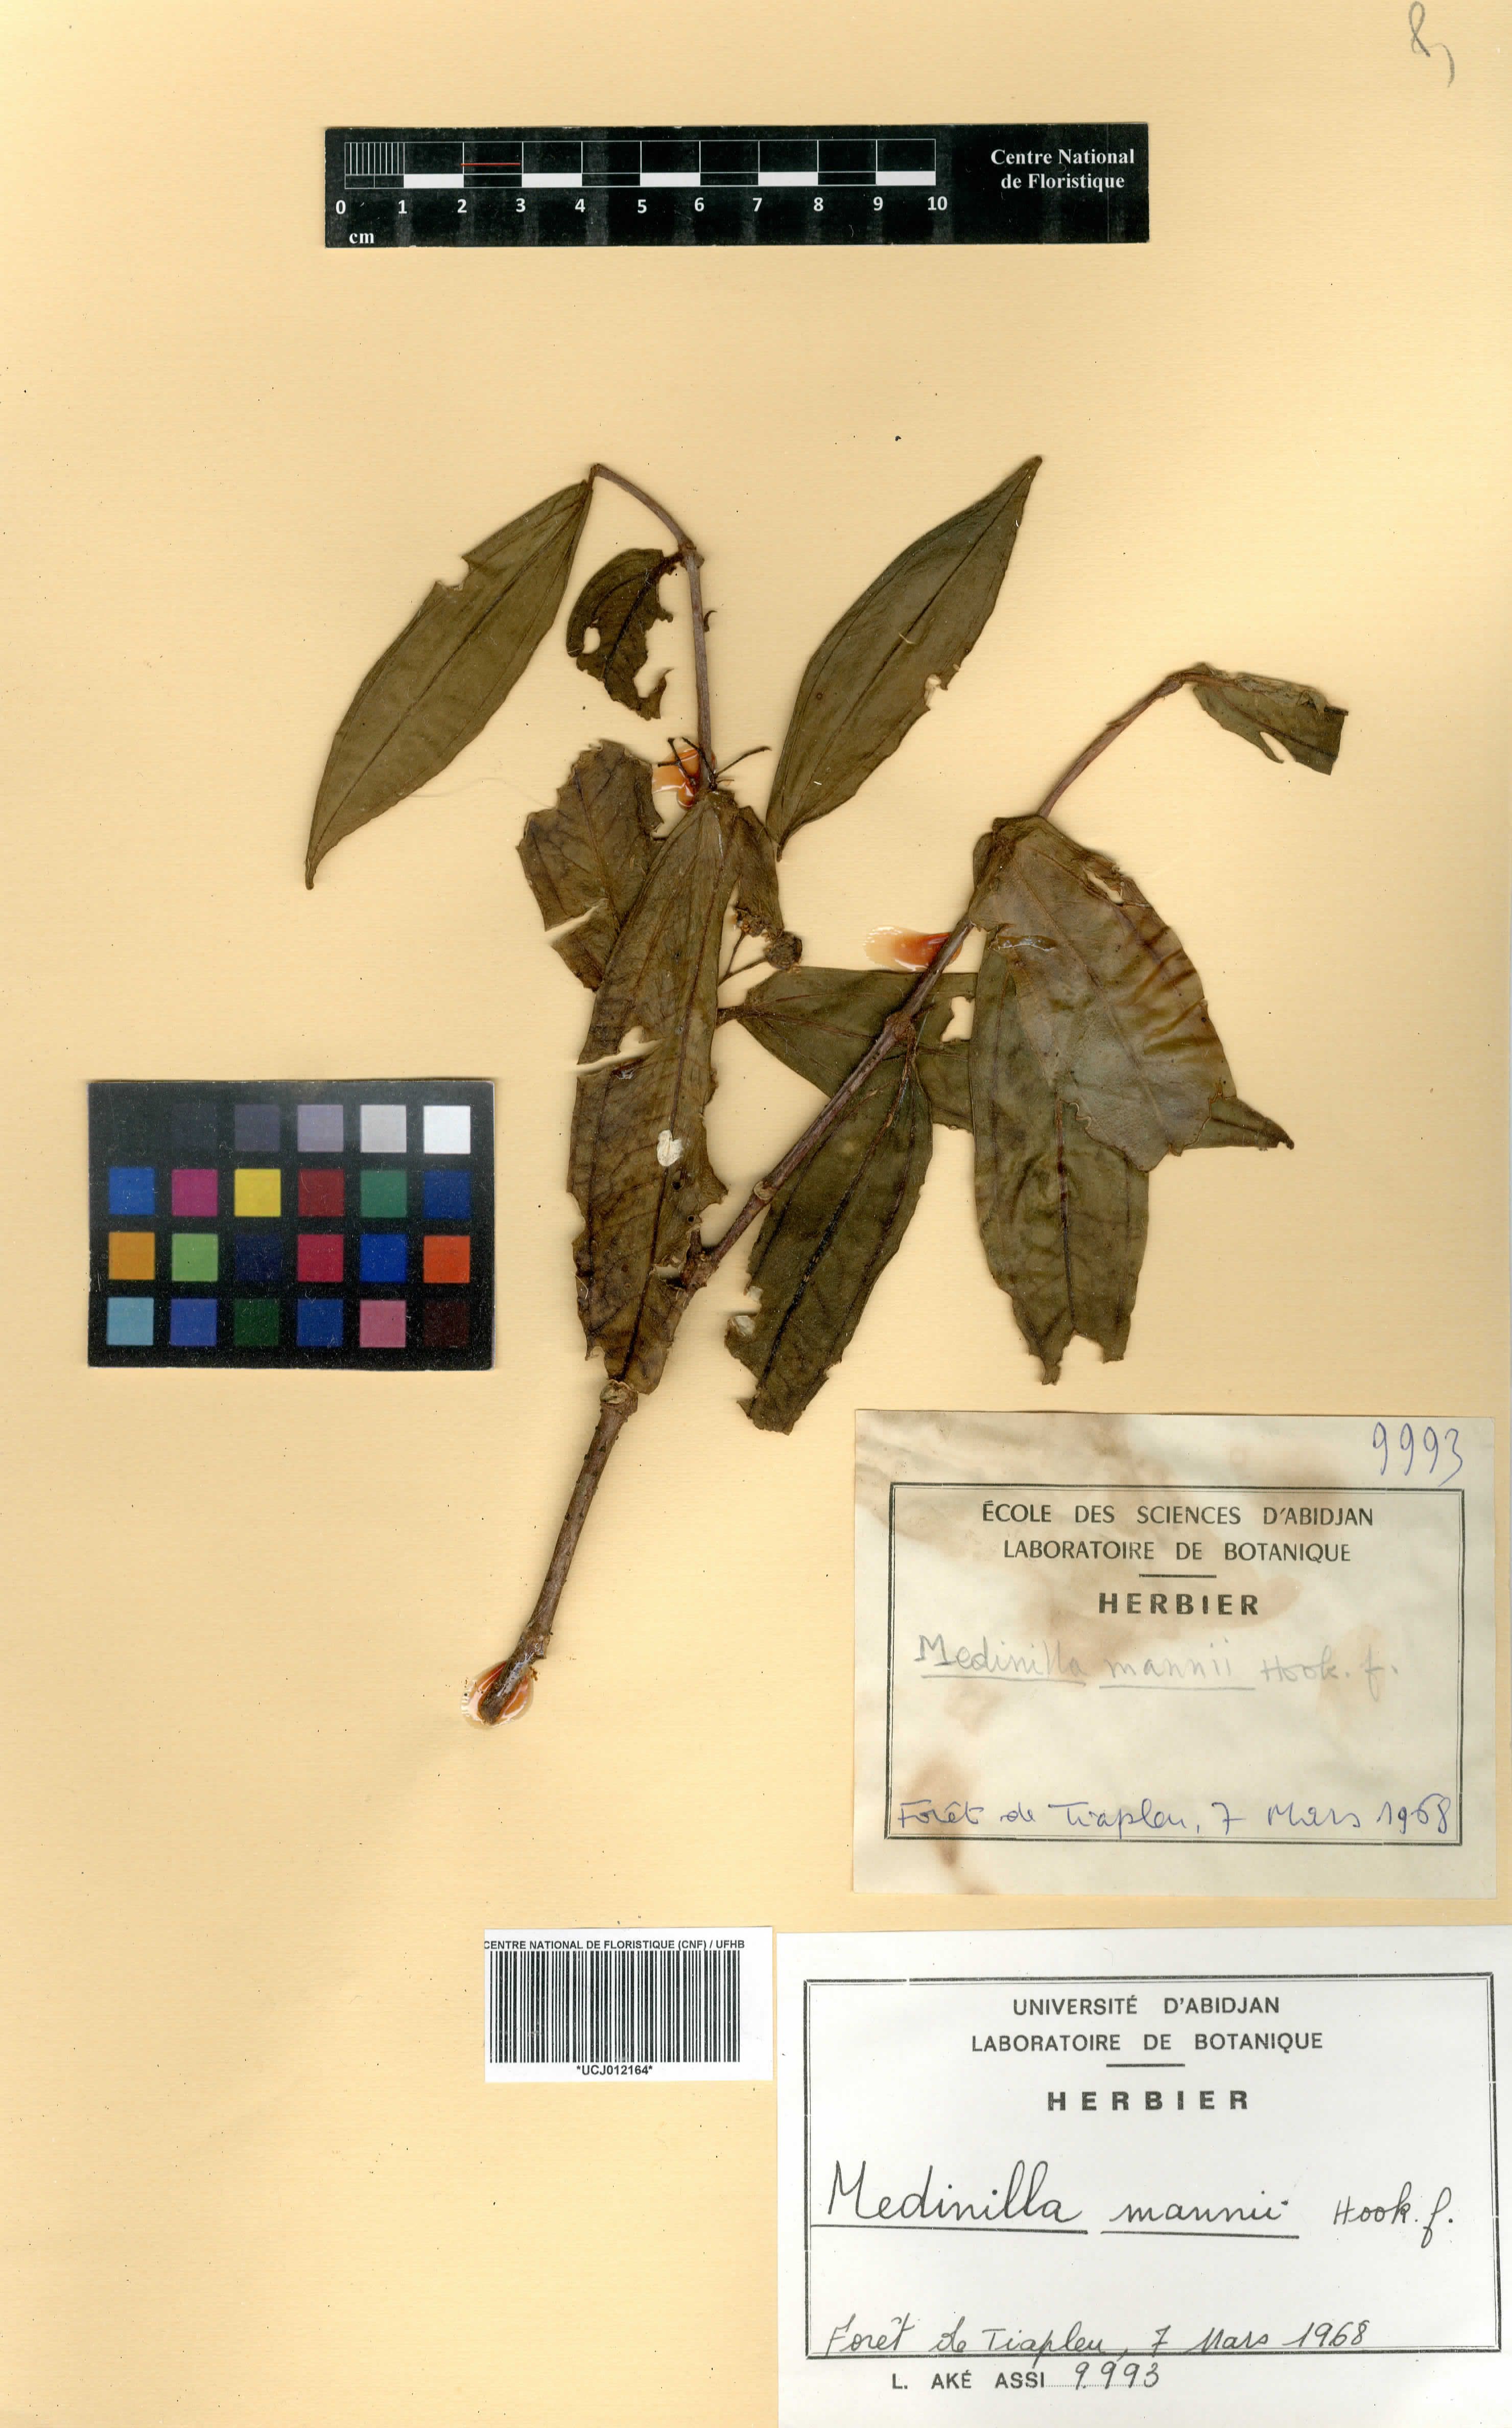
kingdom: Plantae
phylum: Tracheophyta
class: Magnoliopsida
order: Myrtales
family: Melastomataceae
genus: Medinilla
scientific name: Medinilla mannii
